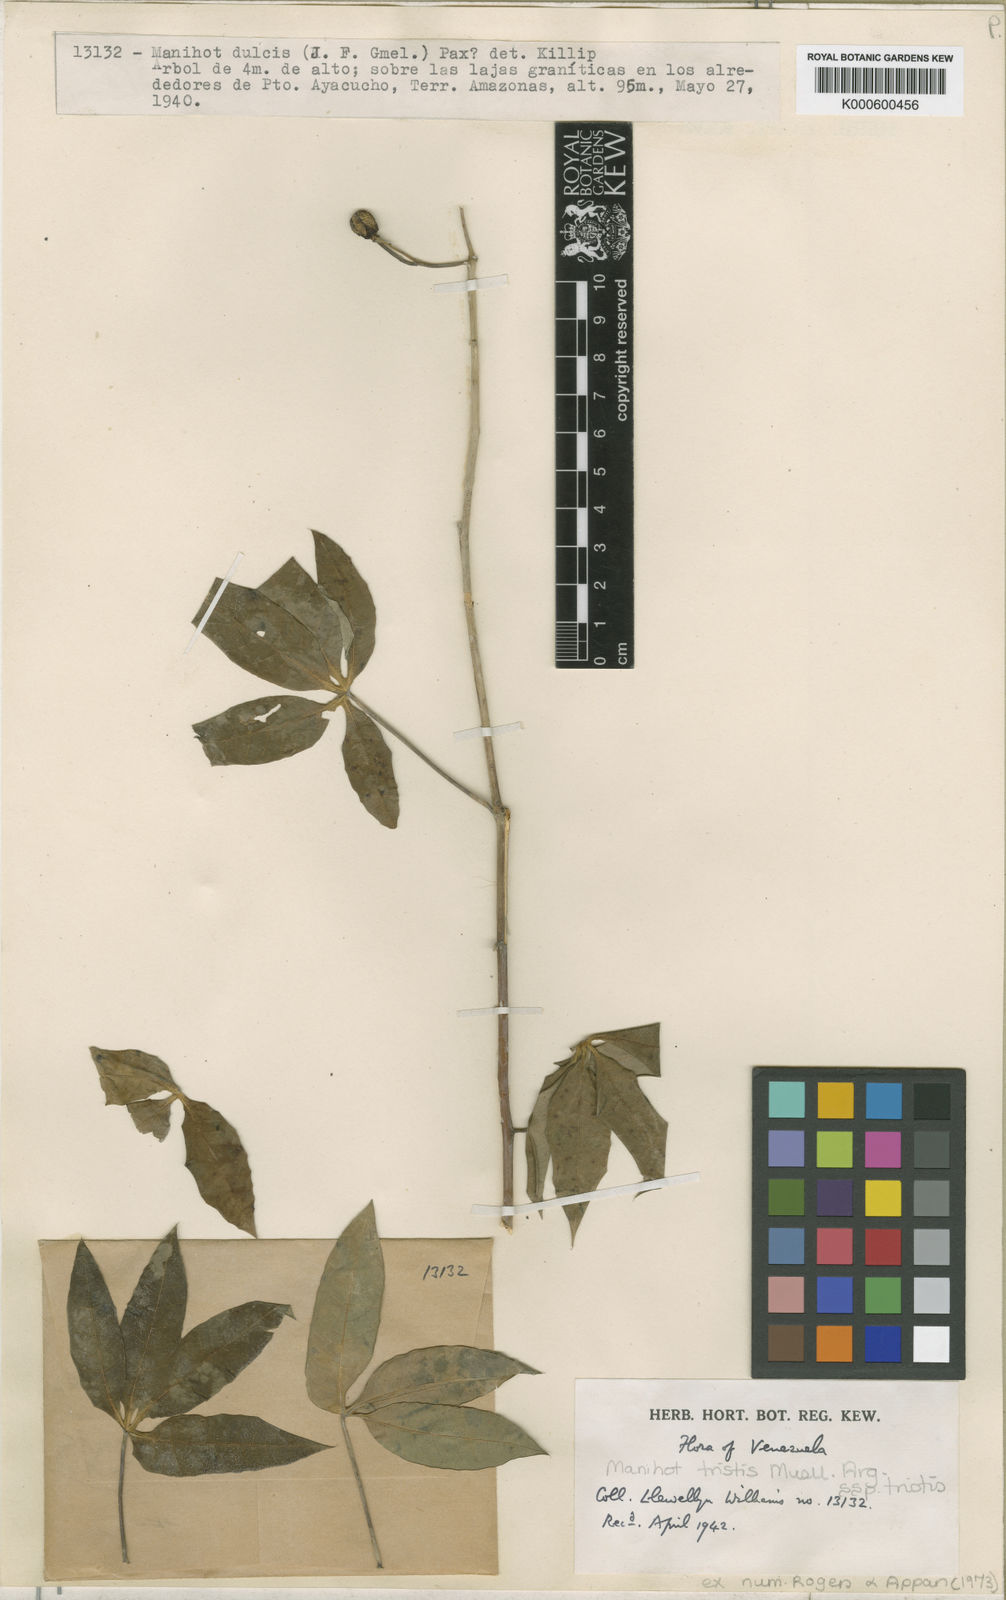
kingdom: Plantae
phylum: Tracheophyta
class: Magnoliopsida
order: Malpighiales
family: Euphorbiaceae
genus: Manihot
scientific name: Manihot
